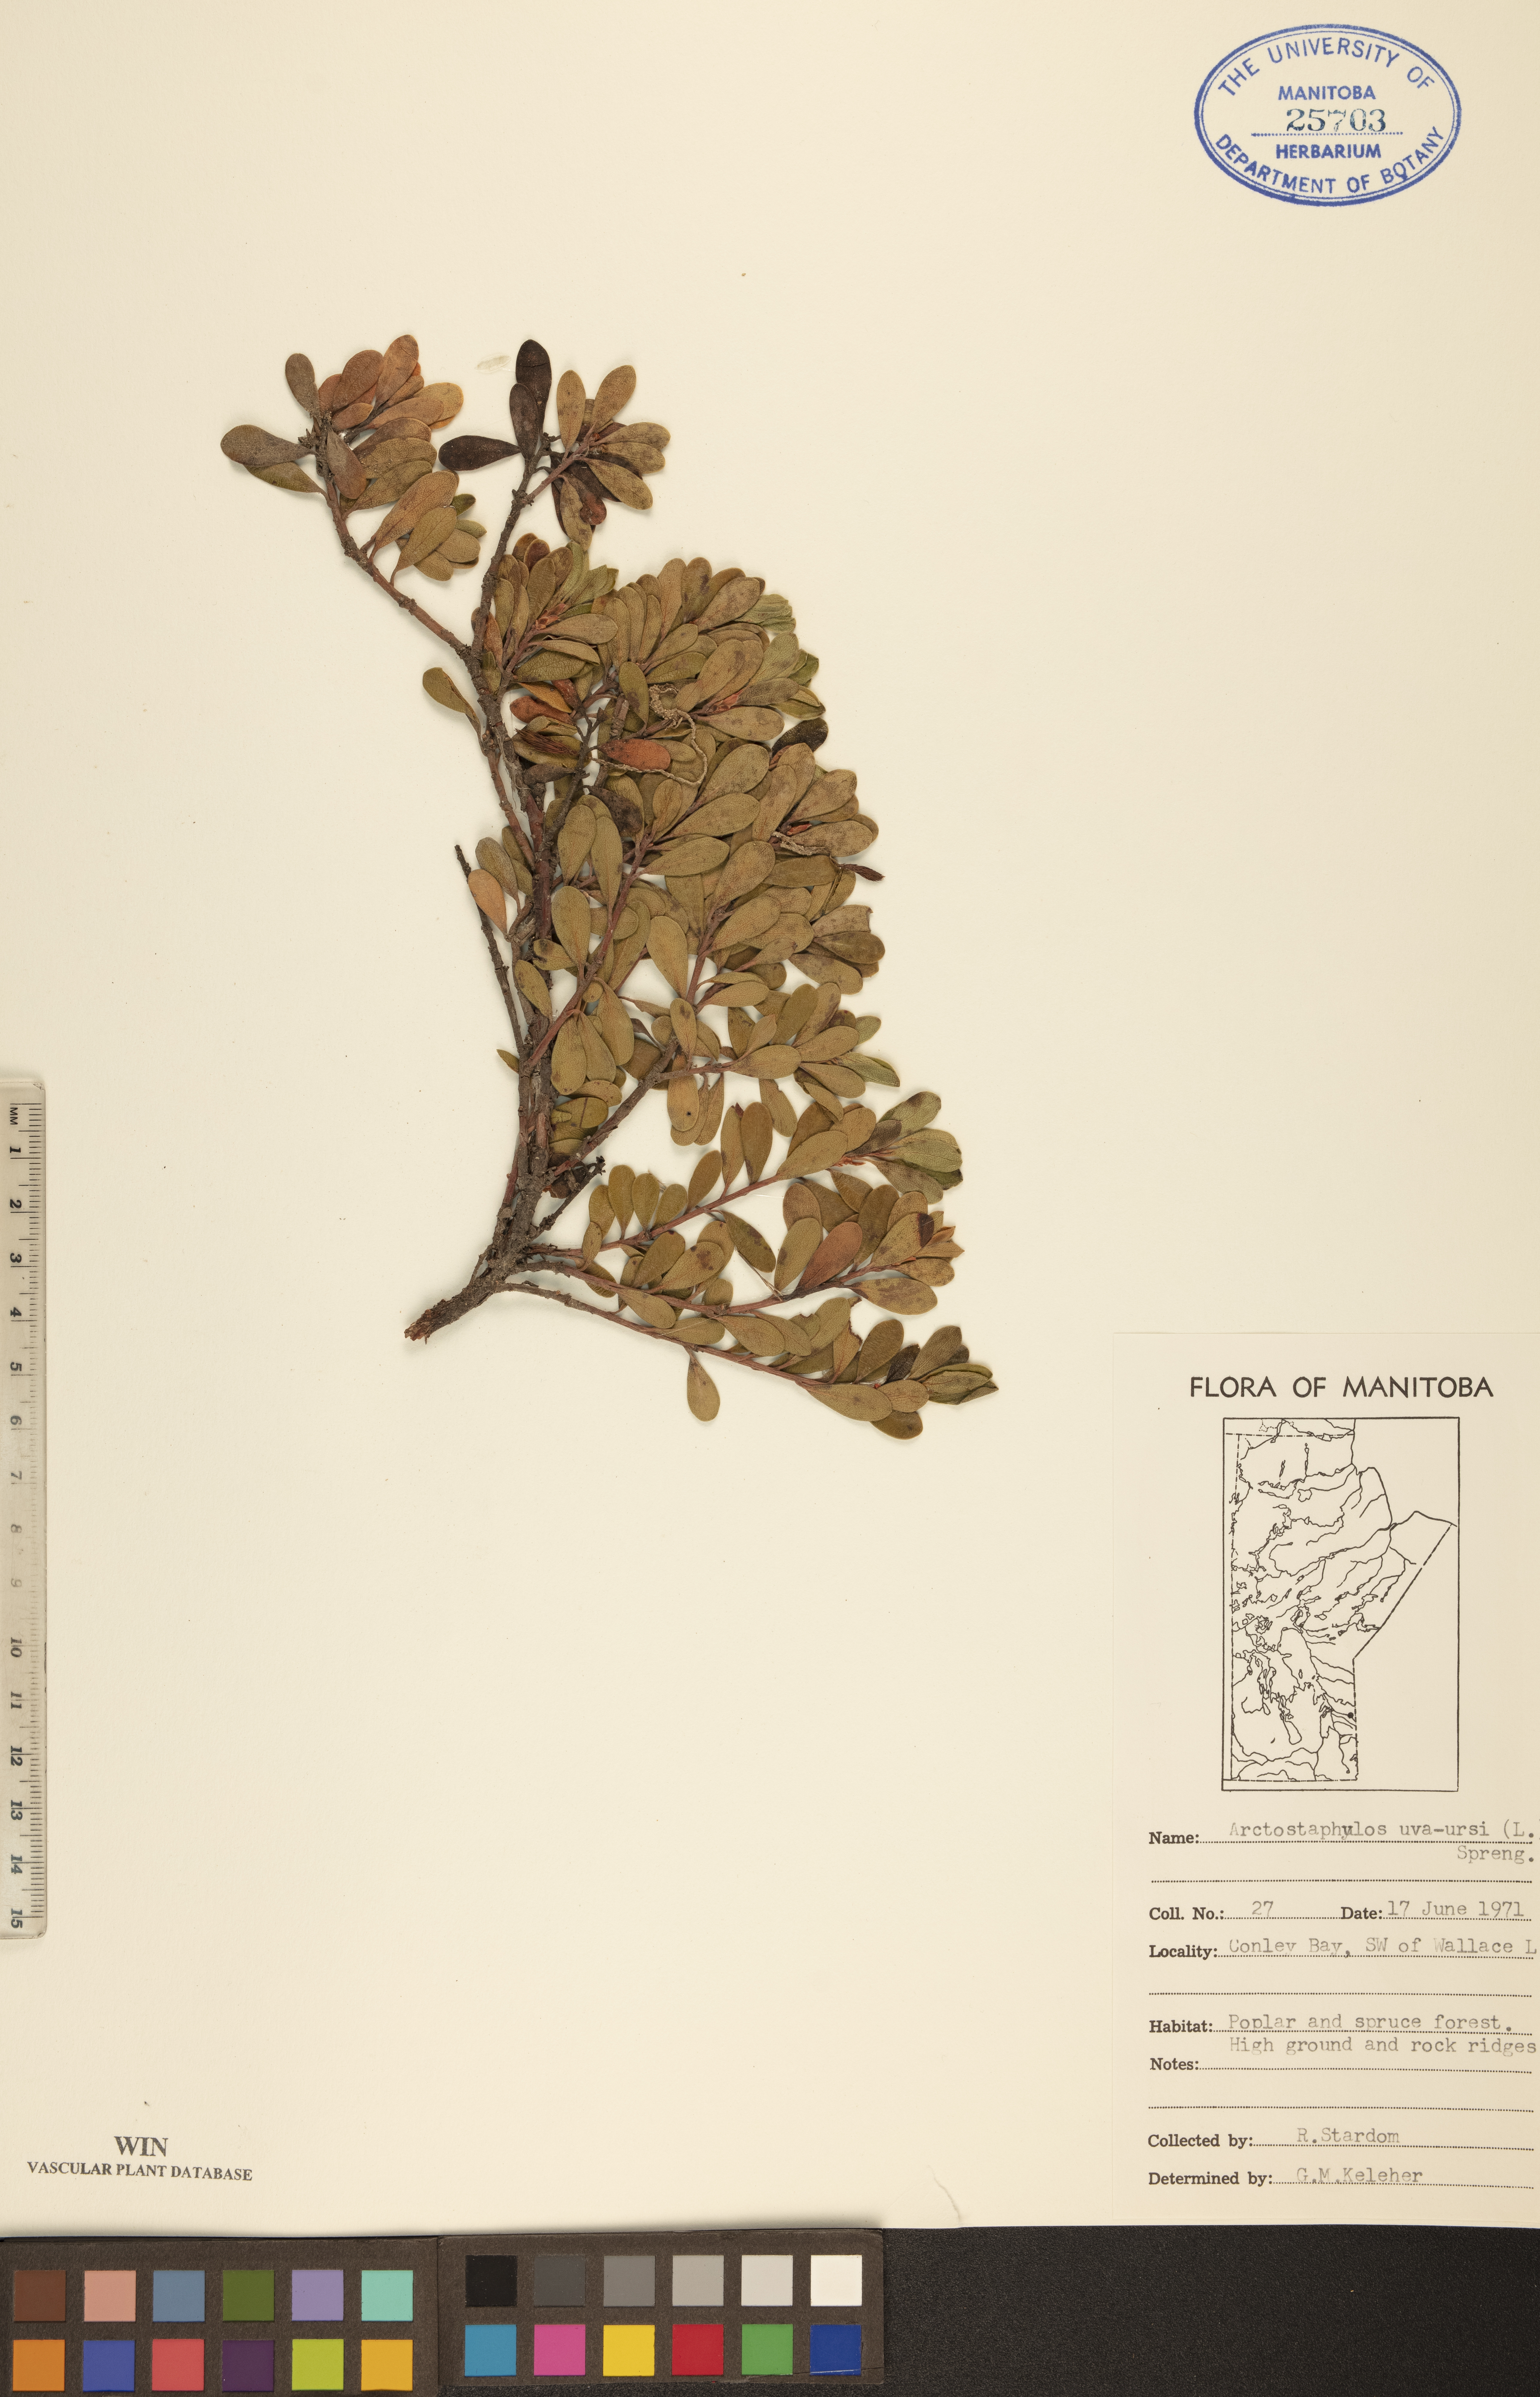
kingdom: Plantae
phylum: Tracheophyta
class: Magnoliopsida
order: Ericales
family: Ericaceae
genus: Arctostaphylos
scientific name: Arctostaphylos uva-ursi
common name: Bearberry
